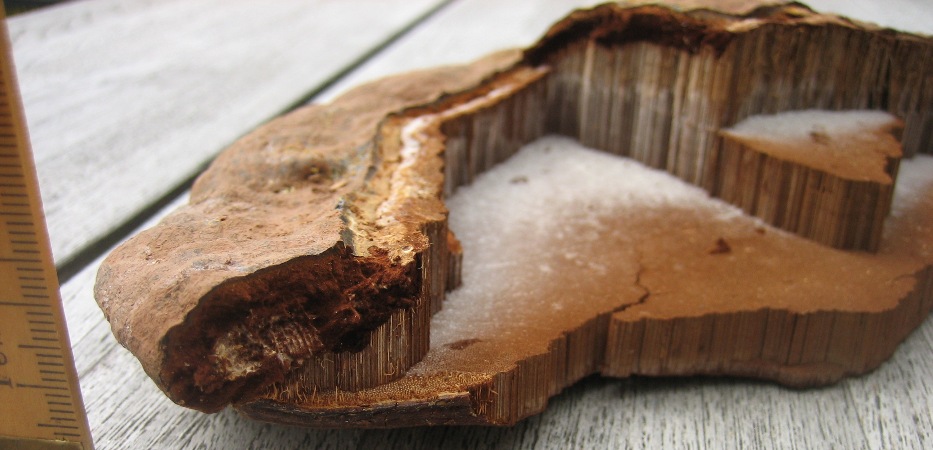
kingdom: Fungi
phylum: Basidiomycota
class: Agaricomycetes
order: Polyporales
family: Polyporaceae
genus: Ganoderma
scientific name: Ganoderma pfeifferi
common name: kobberrød lakporesvamp
